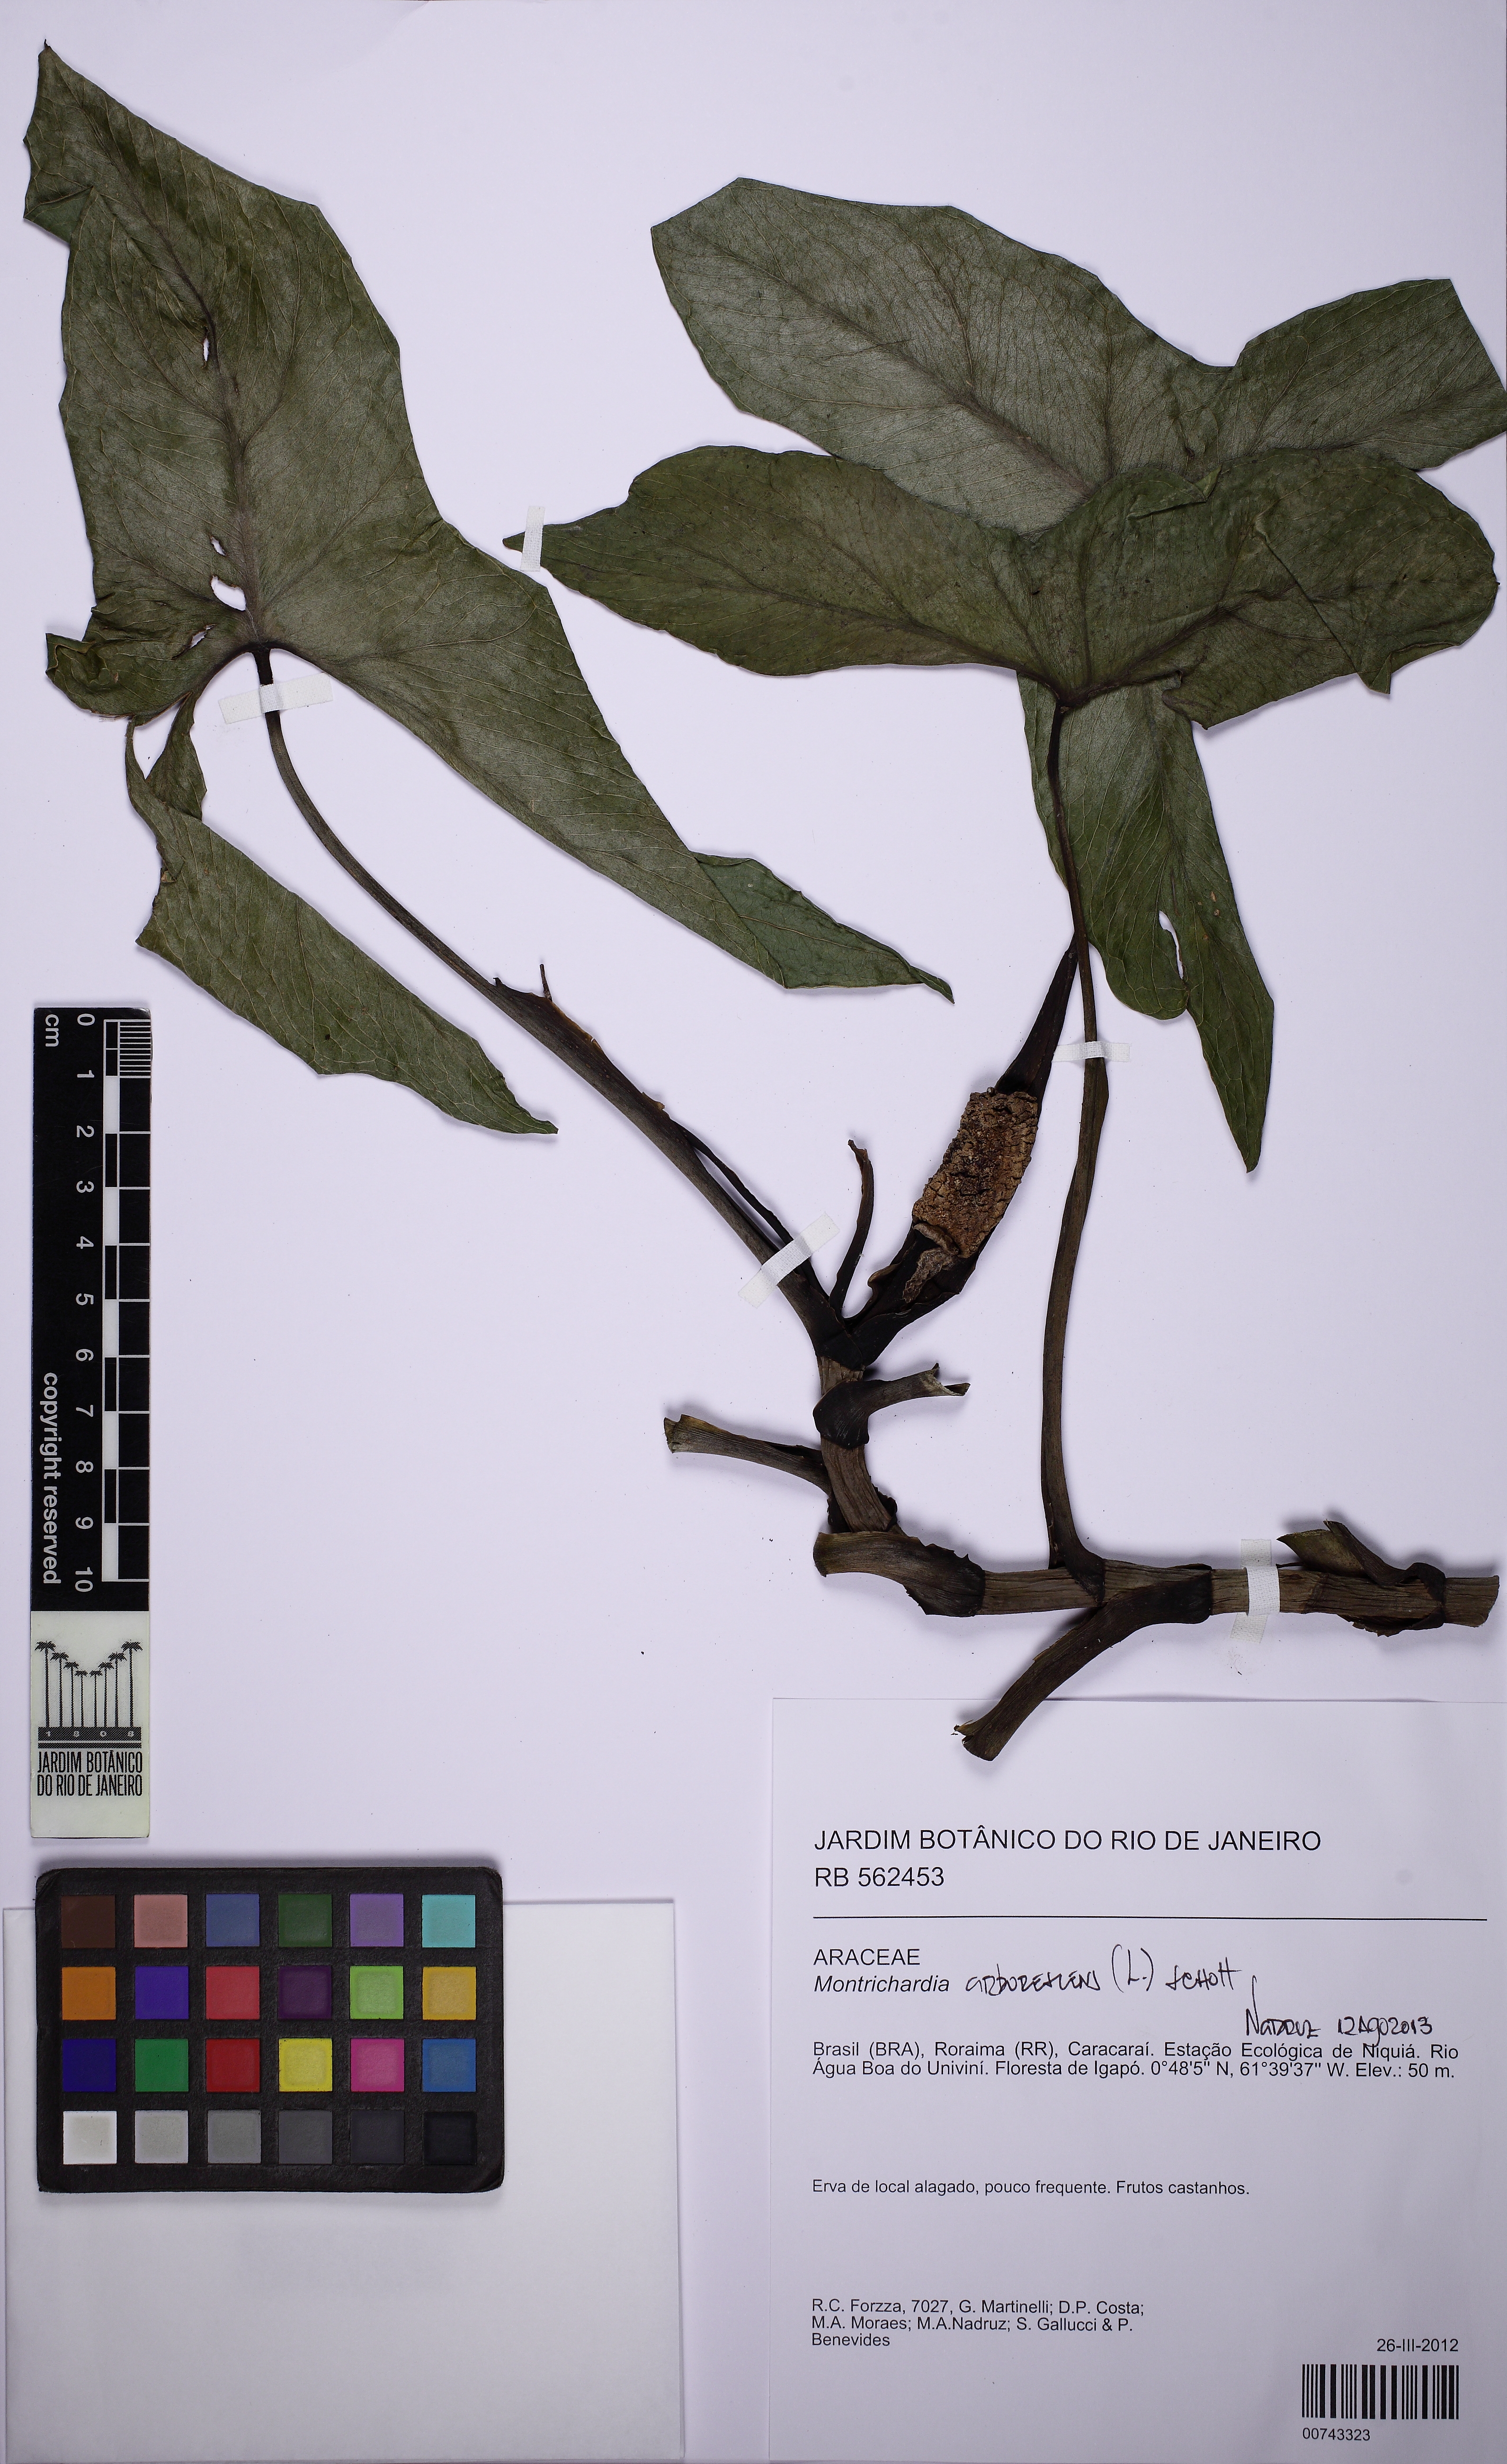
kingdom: Plantae
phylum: Tracheophyta
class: Liliopsida
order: Alismatales
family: Araceae
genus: Montrichardia
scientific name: Montrichardia arborescens
